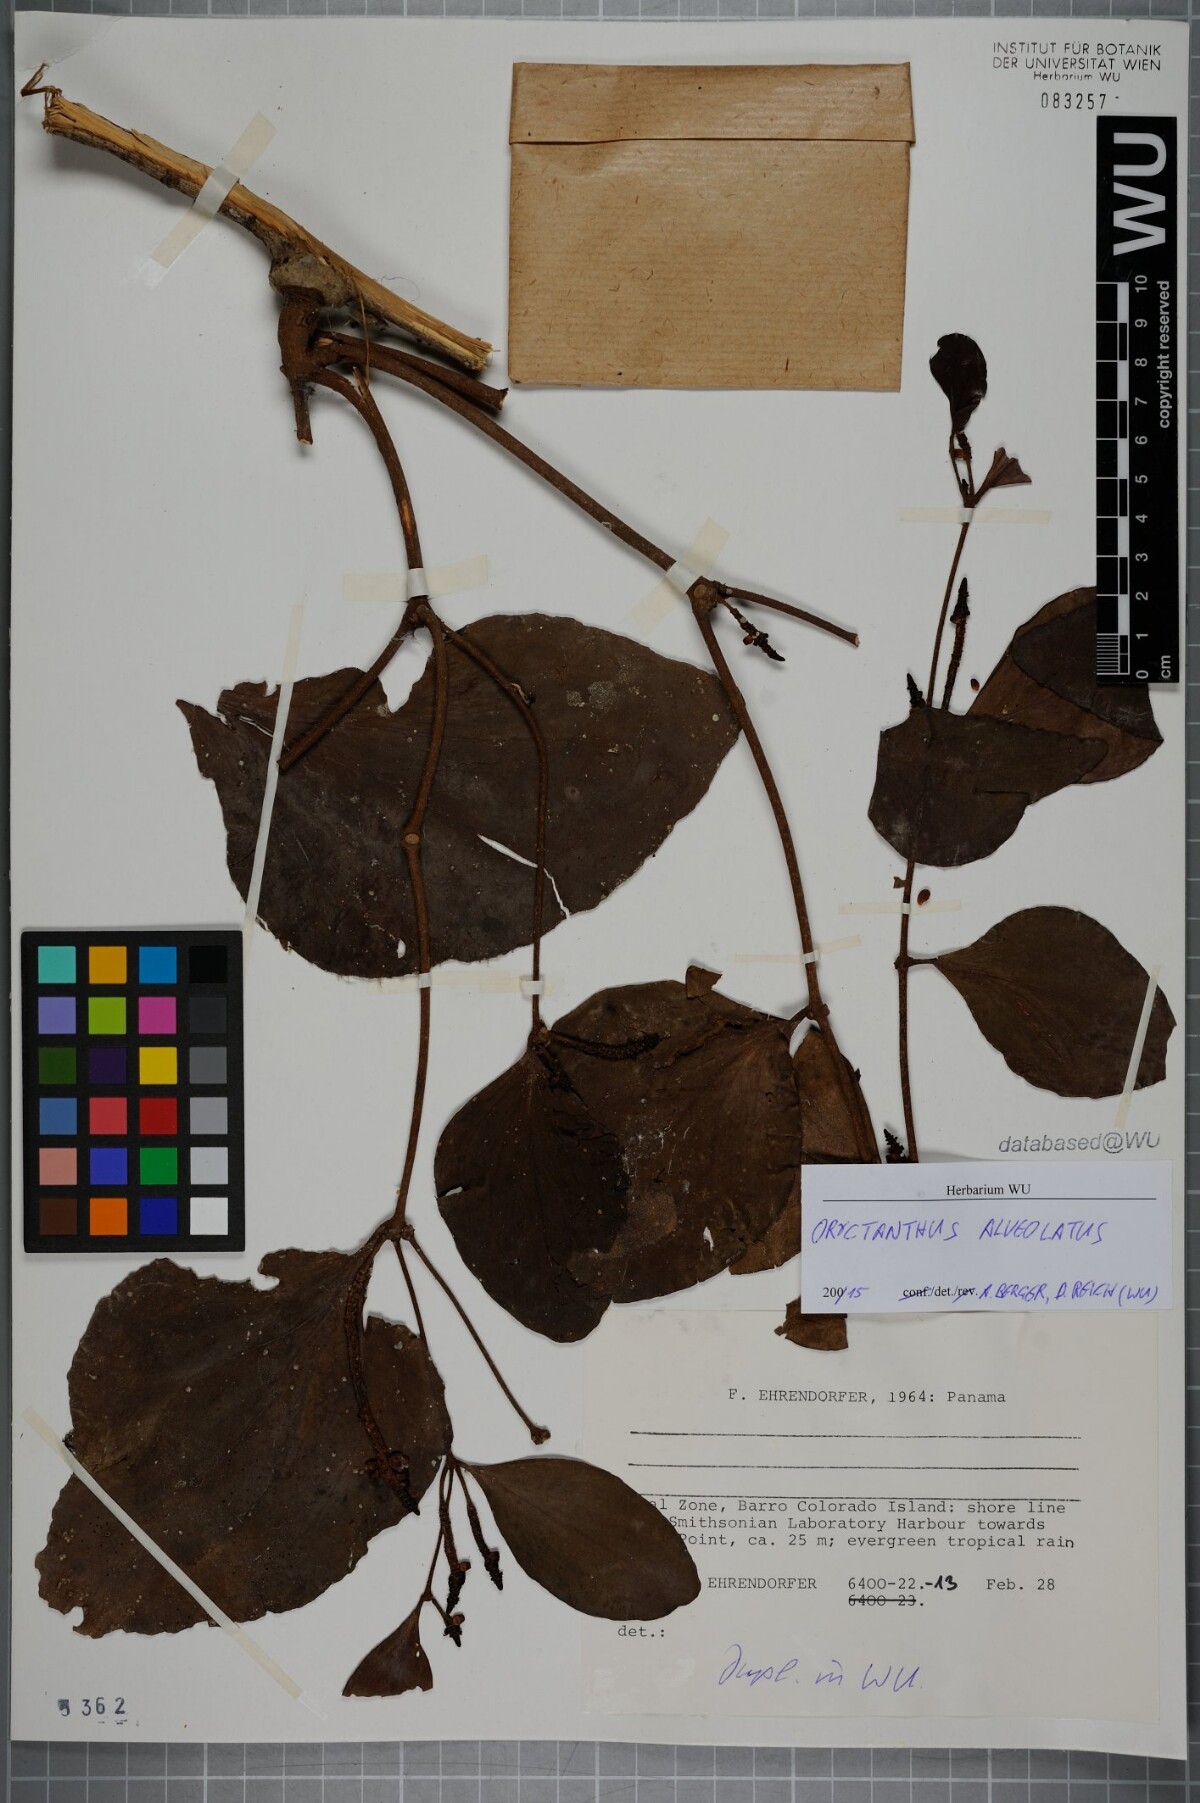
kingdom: Plantae
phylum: Tracheophyta
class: Magnoliopsida
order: Santalales
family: Loranthaceae
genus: Oryctanthus
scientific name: Oryctanthus alveolatus
